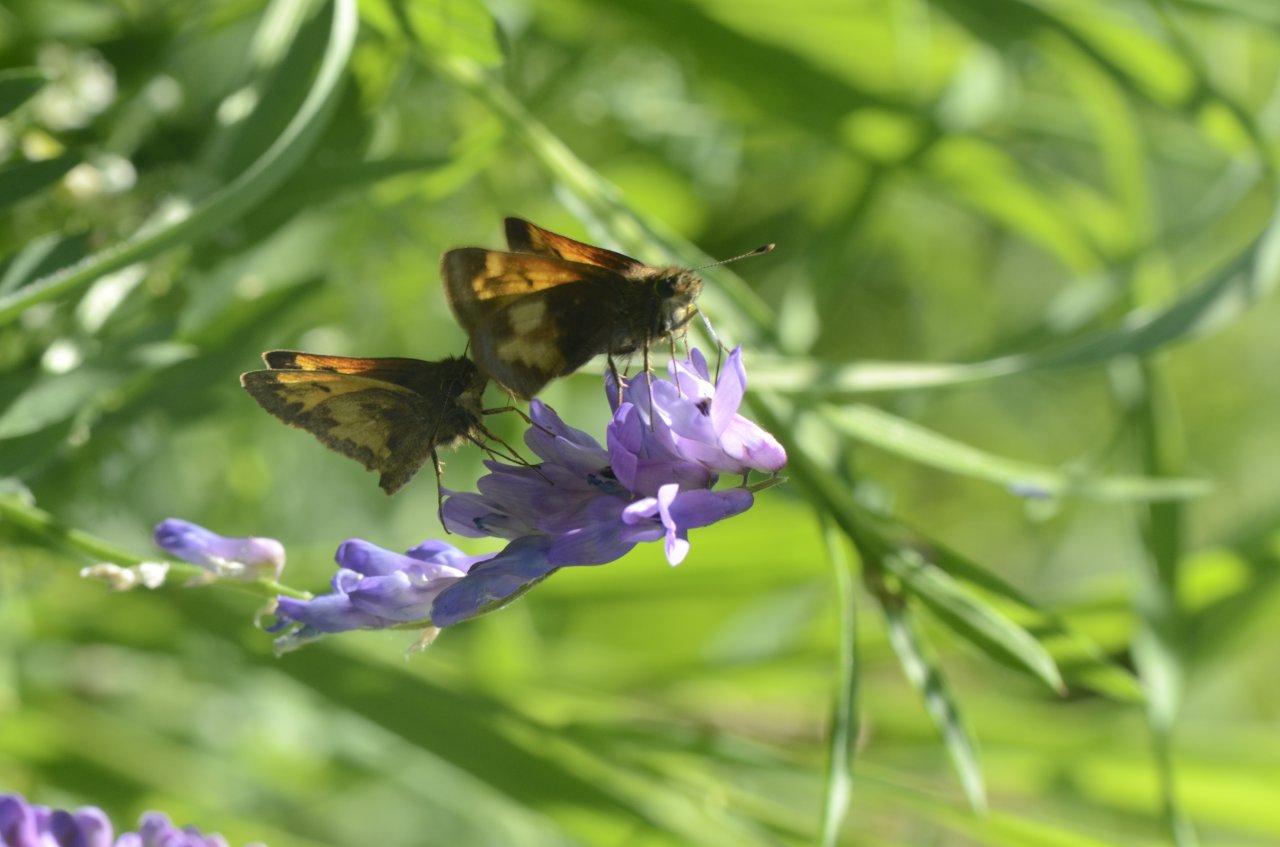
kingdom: Animalia
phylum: Arthropoda
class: Insecta
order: Lepidoptera
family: Hesperiidae
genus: Lon
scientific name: Lon hobomok
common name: Hobomok Skipper
